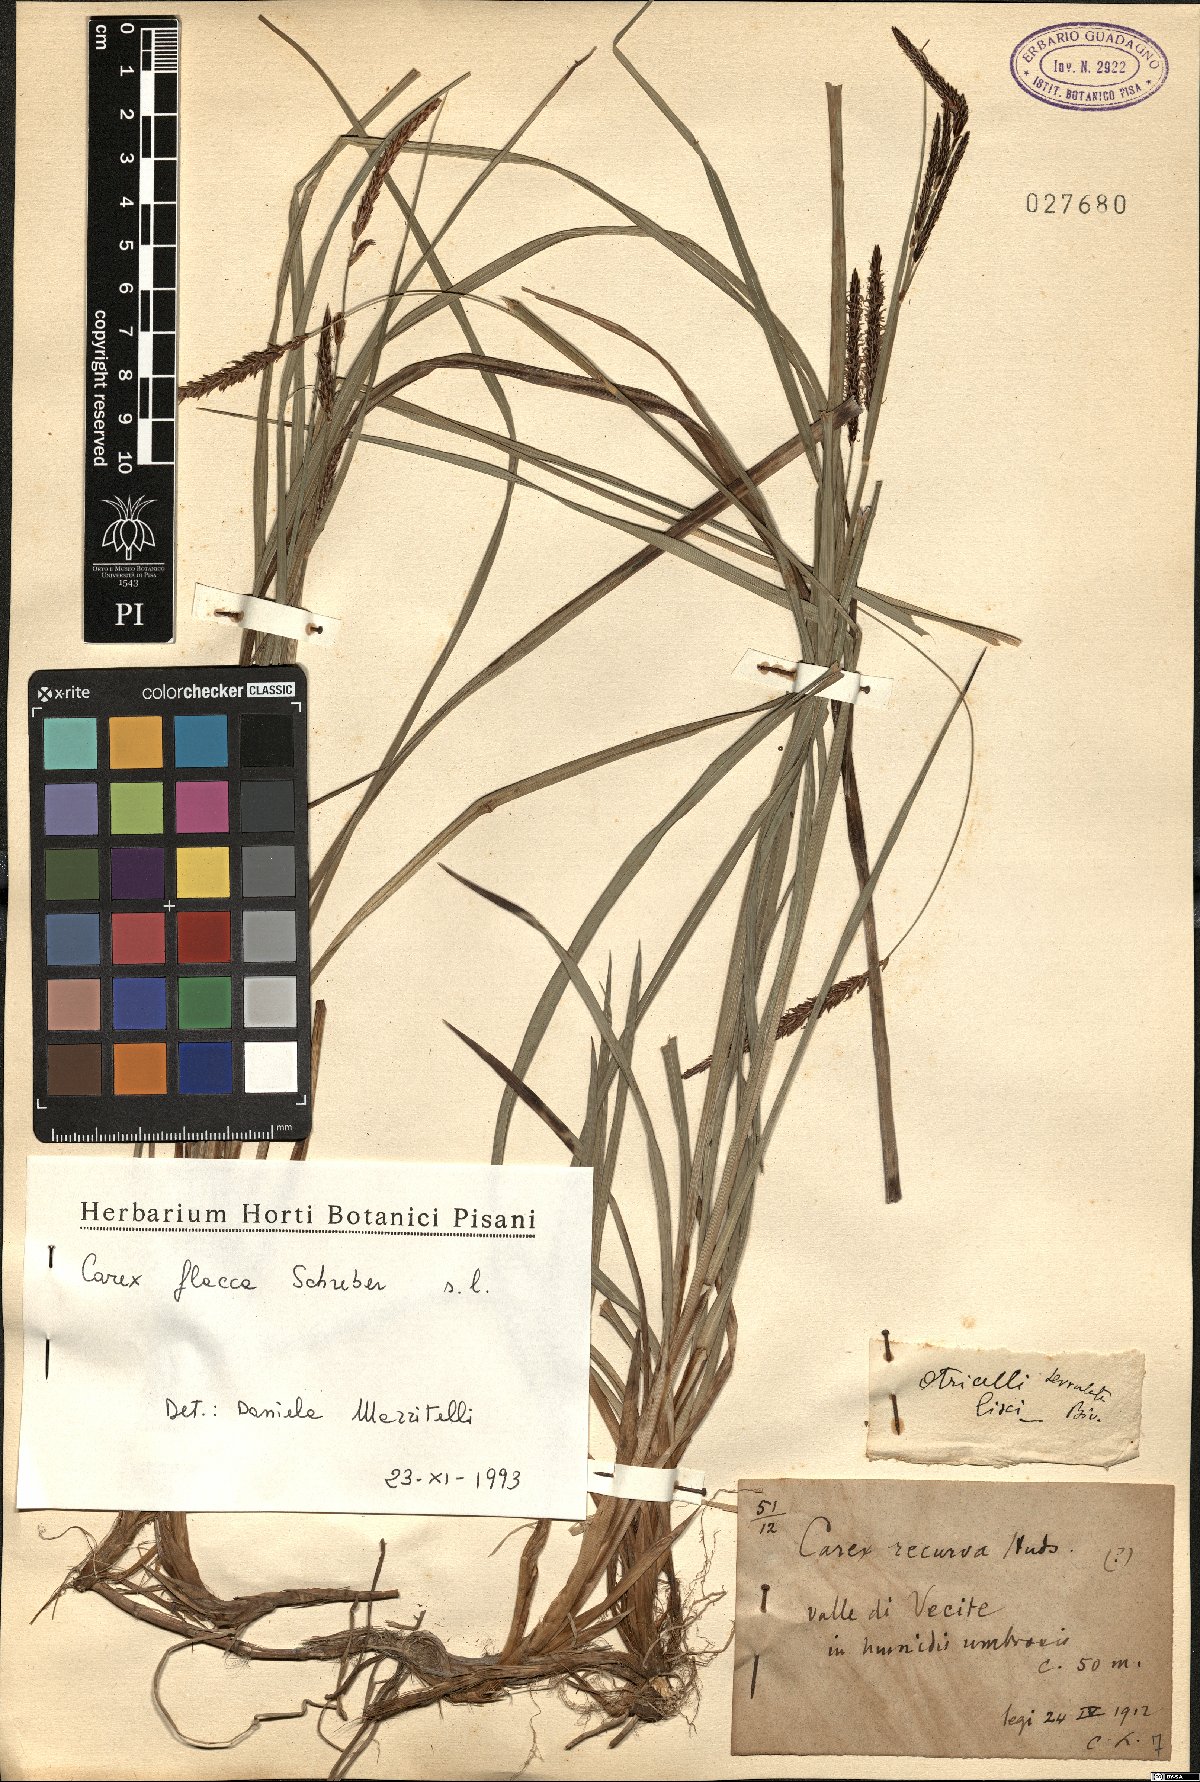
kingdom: Plantae
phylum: Tracheophyta
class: Liliopsida
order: Poales
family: Cyperaceae
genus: Carex
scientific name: Carex flacca
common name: Glaucous sedge
